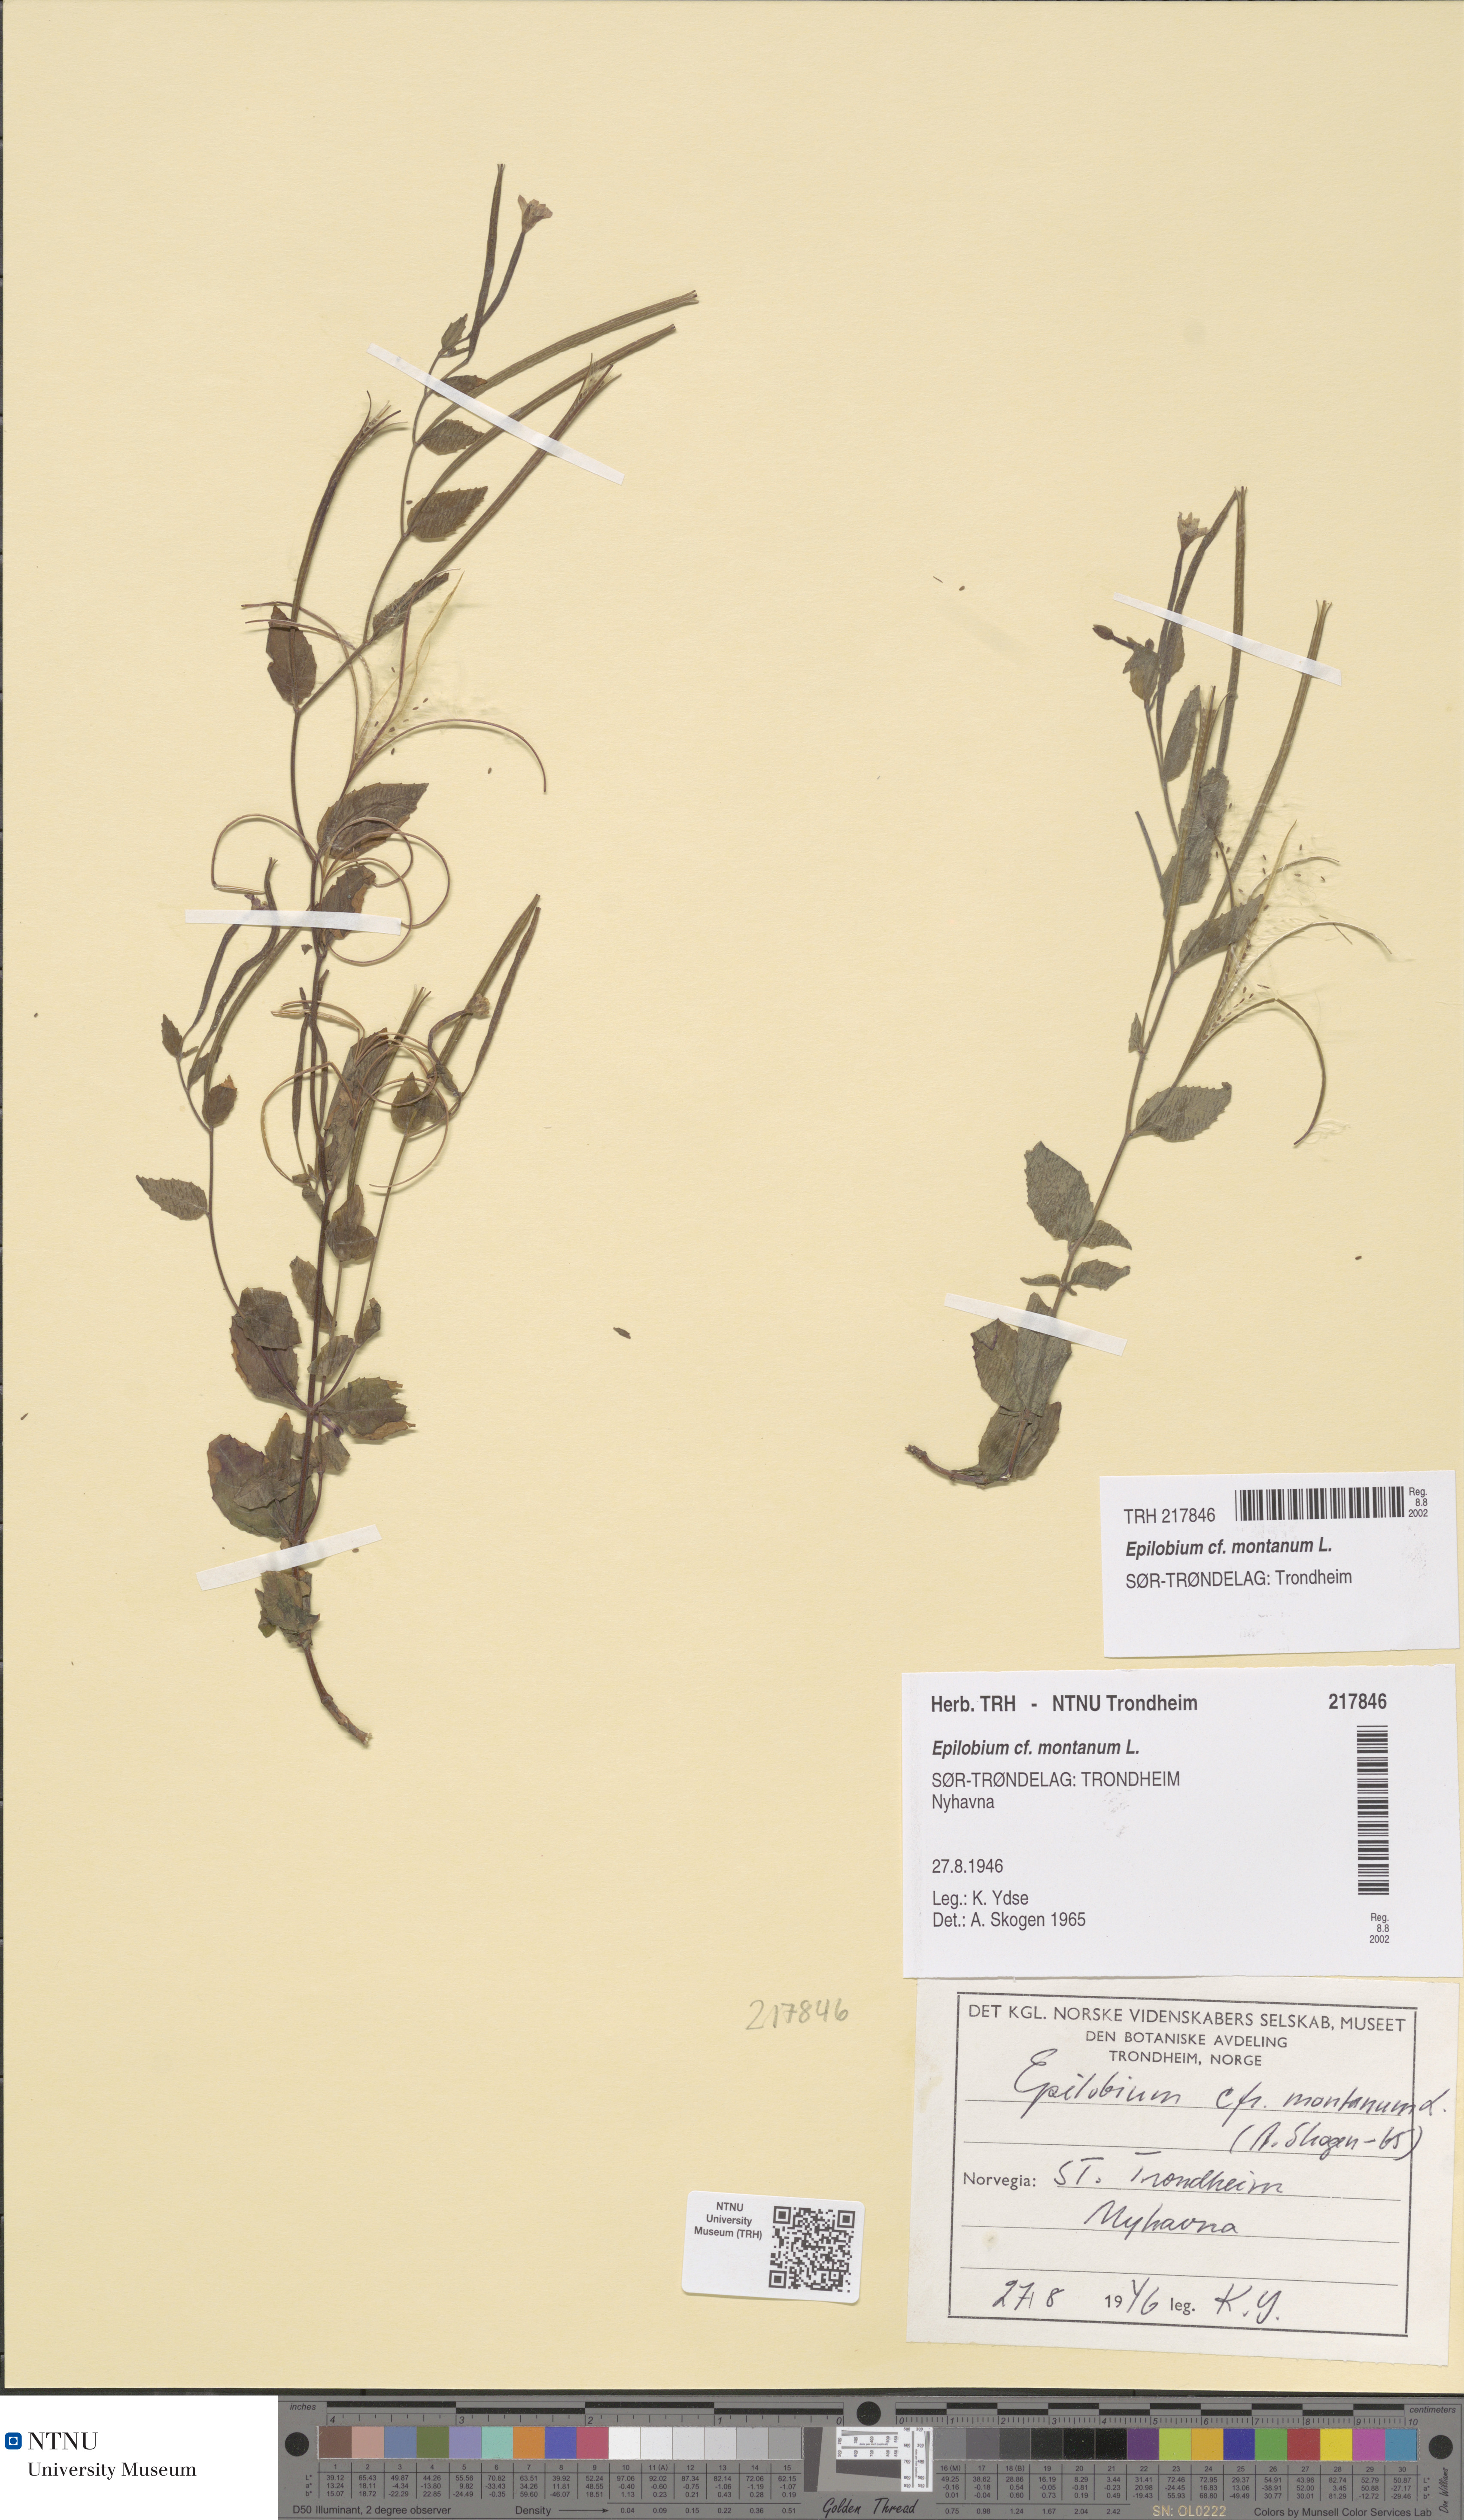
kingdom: Plantae
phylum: Tracheophyta
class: Magnoliopsida
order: Myrtales
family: Onagraceae
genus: Epilobium
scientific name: Epilobium montanum
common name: Broad-leaved willowherb
